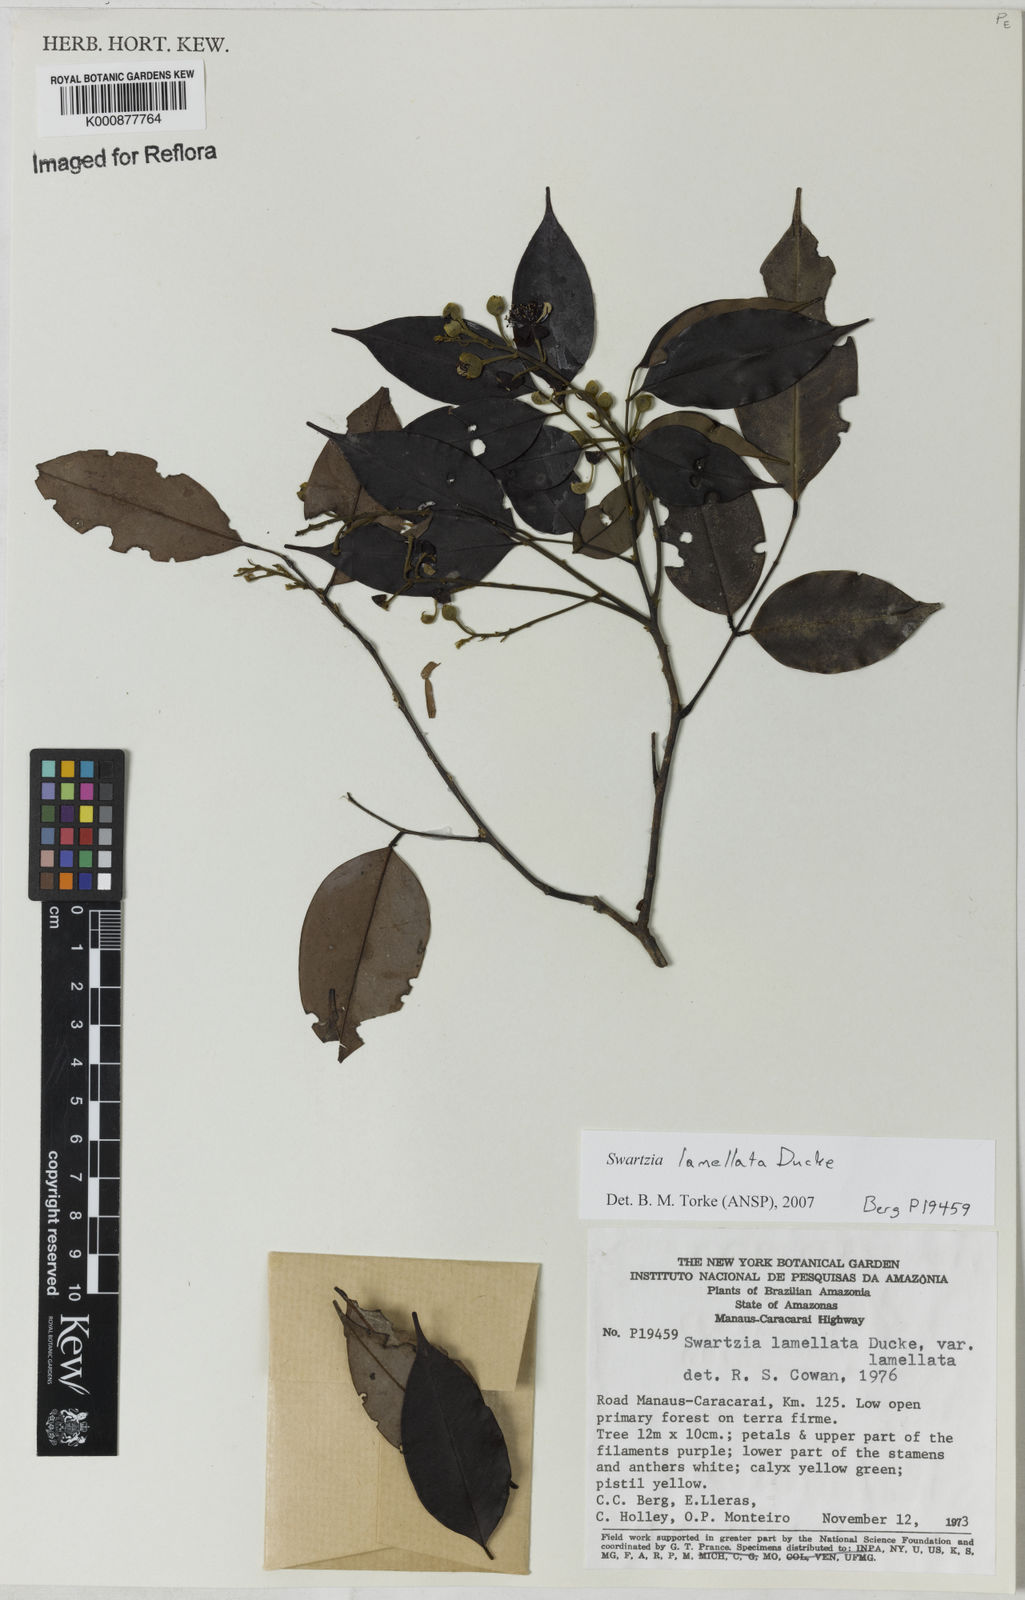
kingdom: Plantae
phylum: Tracheophyta
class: Magnoliopsida
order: Fabales
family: Fabaceae
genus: Swartzia
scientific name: Swartzia lamellata
